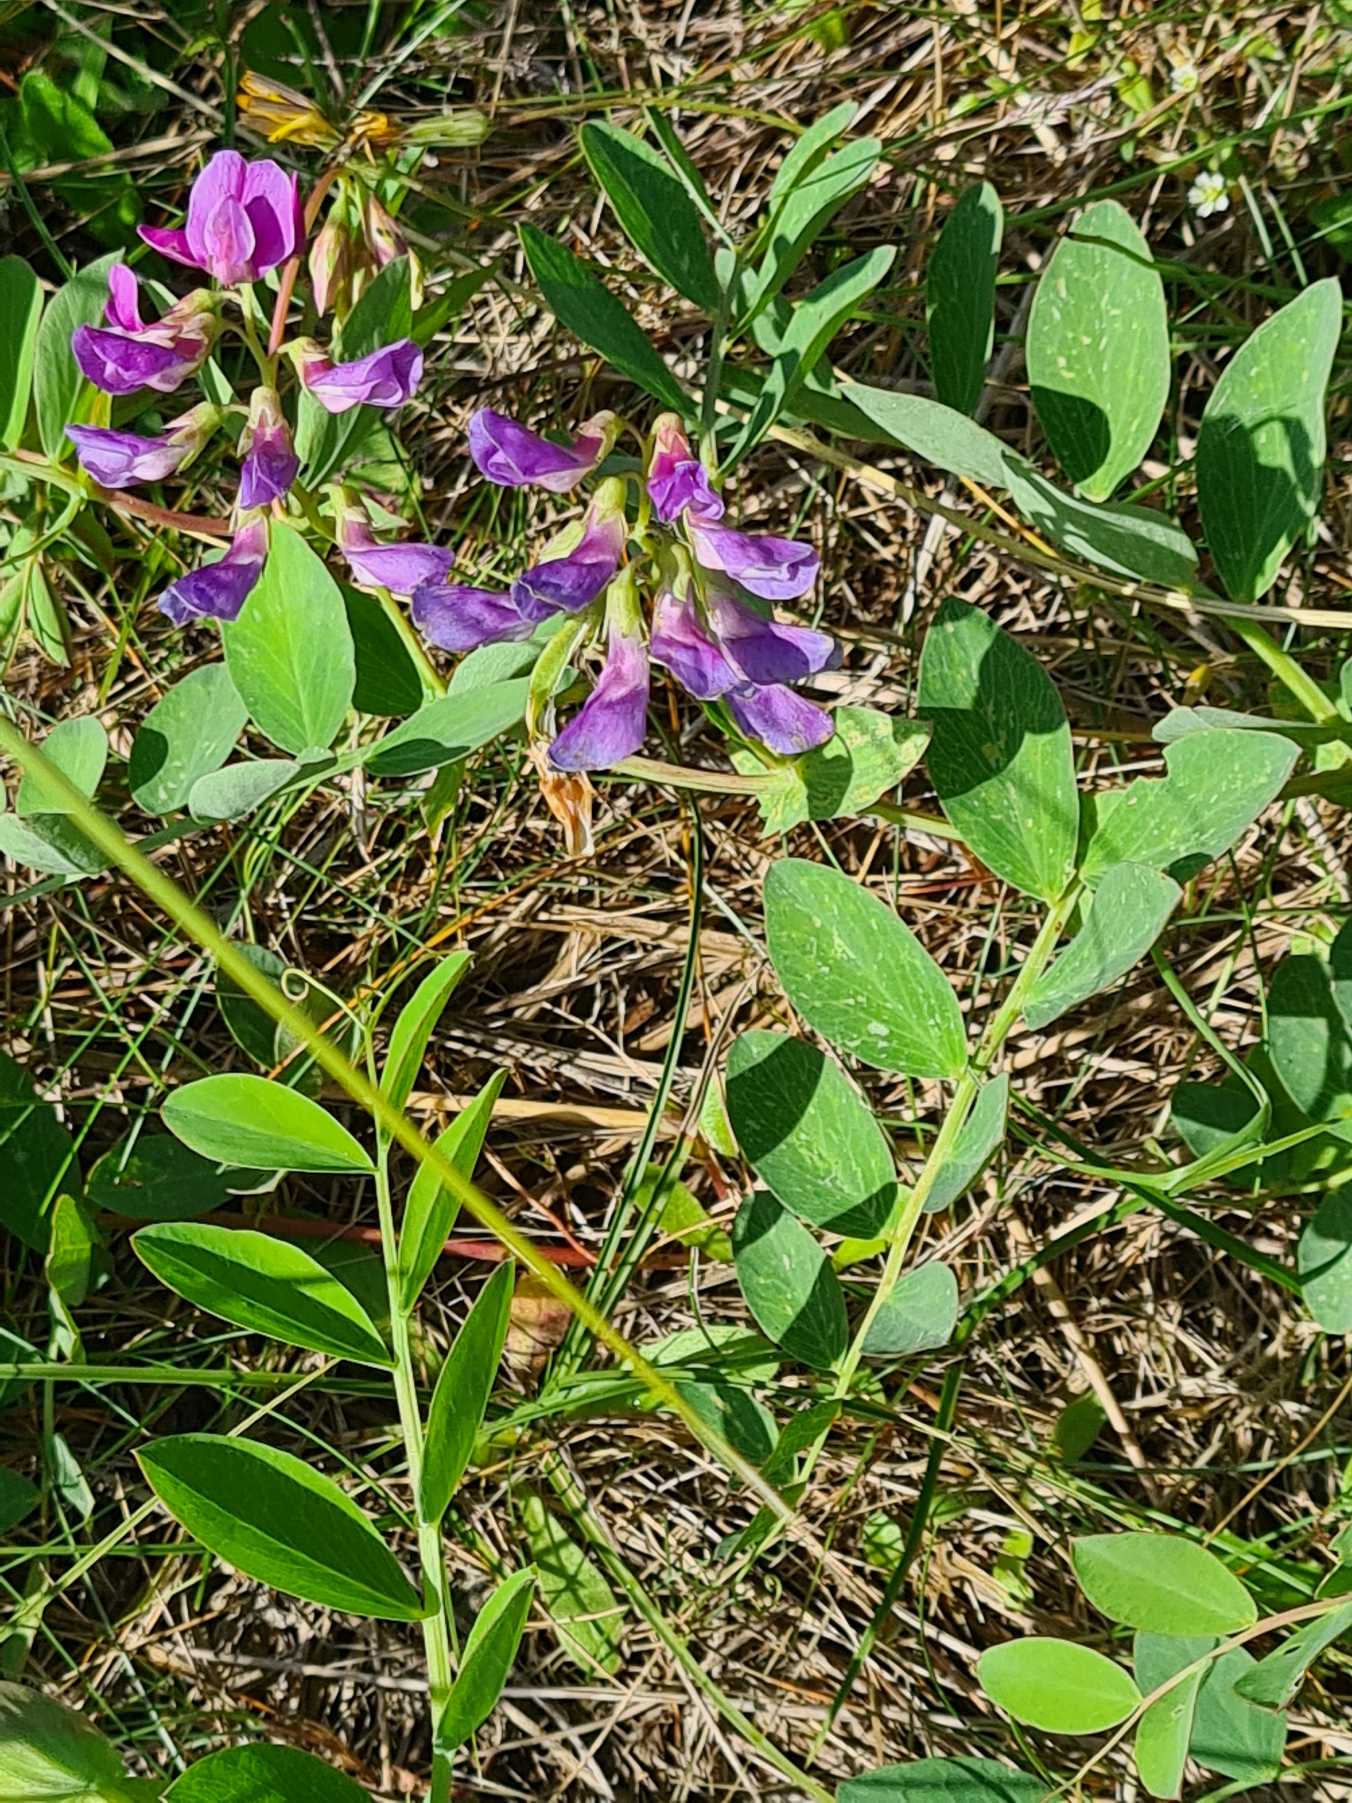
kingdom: Plantae
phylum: Tracheophyta
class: Magnoliopsida
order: Fabales
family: Fabaceae
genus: Lathyrus
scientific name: Lathyrus japonicus
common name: Strand-fladbælg
